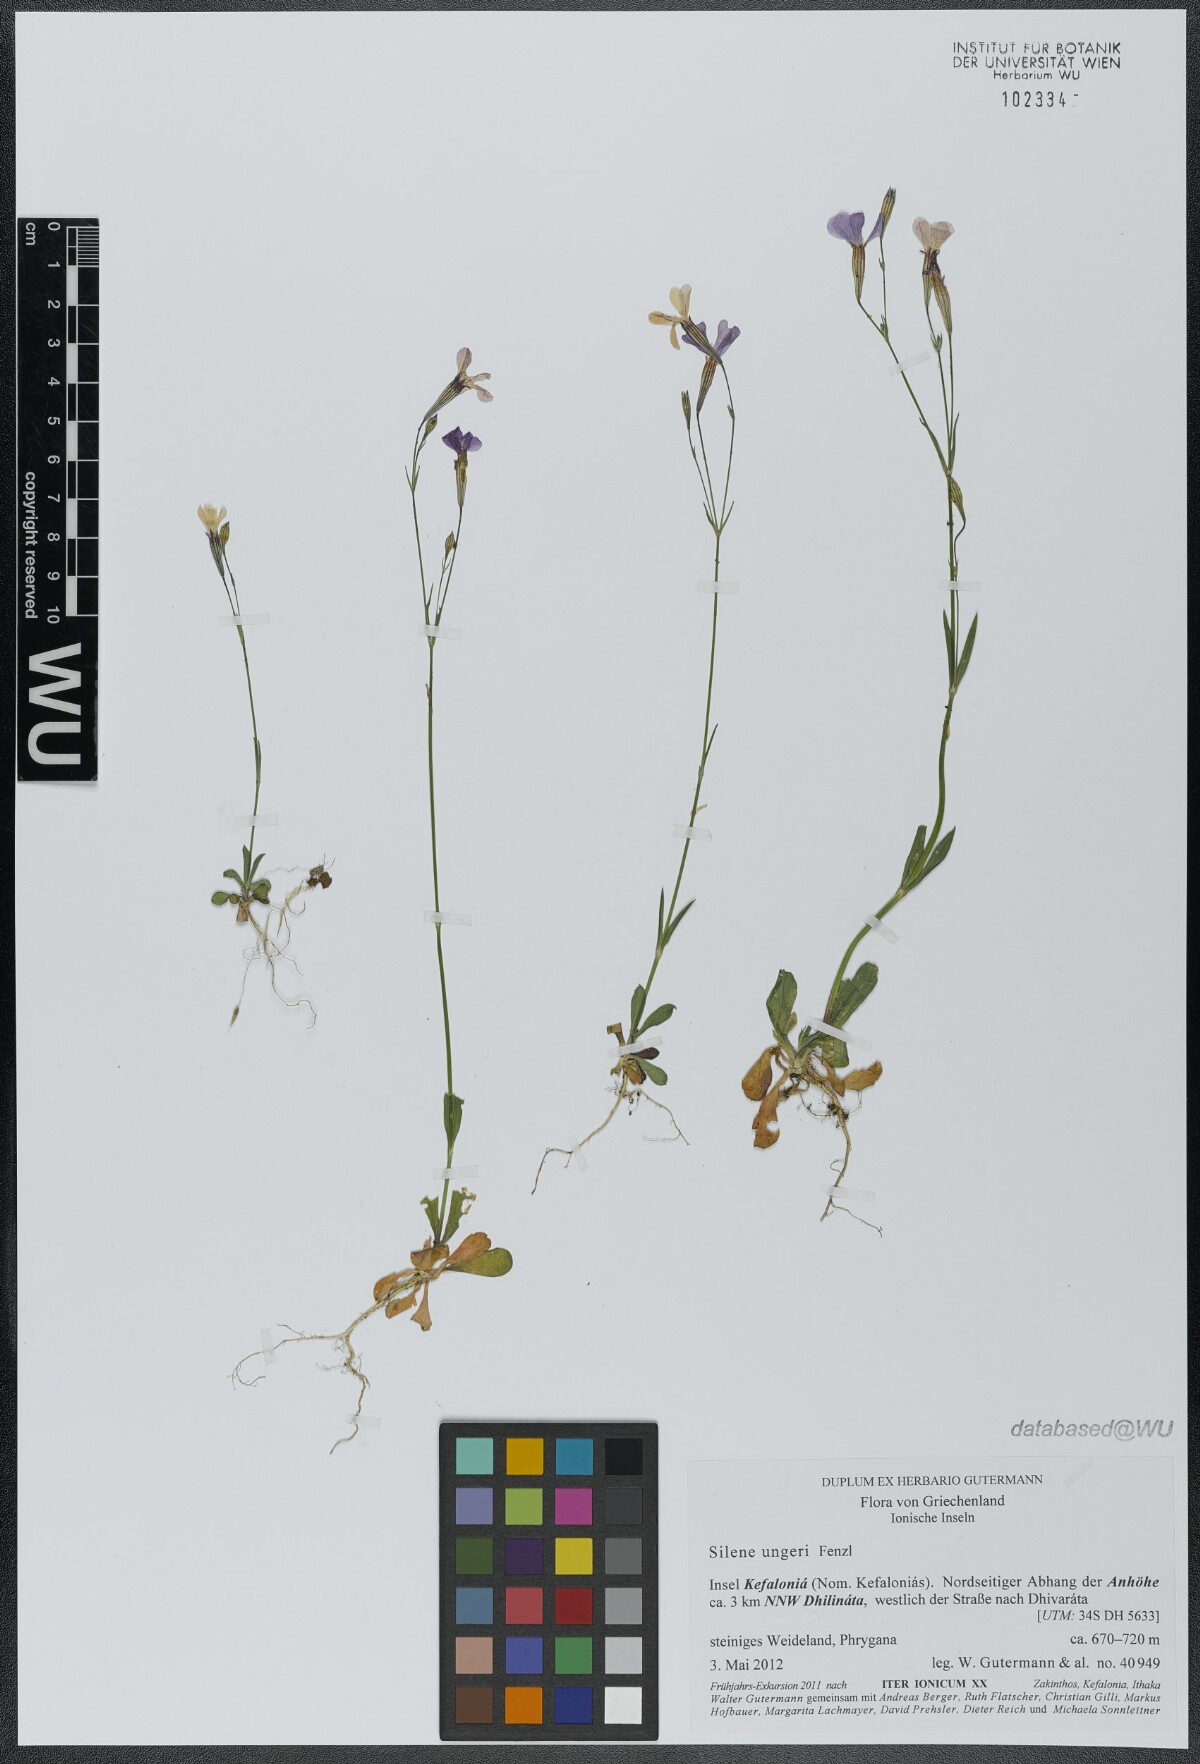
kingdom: Plantae
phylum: Tracheophyta
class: Magnoliopsida
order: Caryophyllales
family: Caryophyllaceae
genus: Silene
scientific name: Silene ungeri
